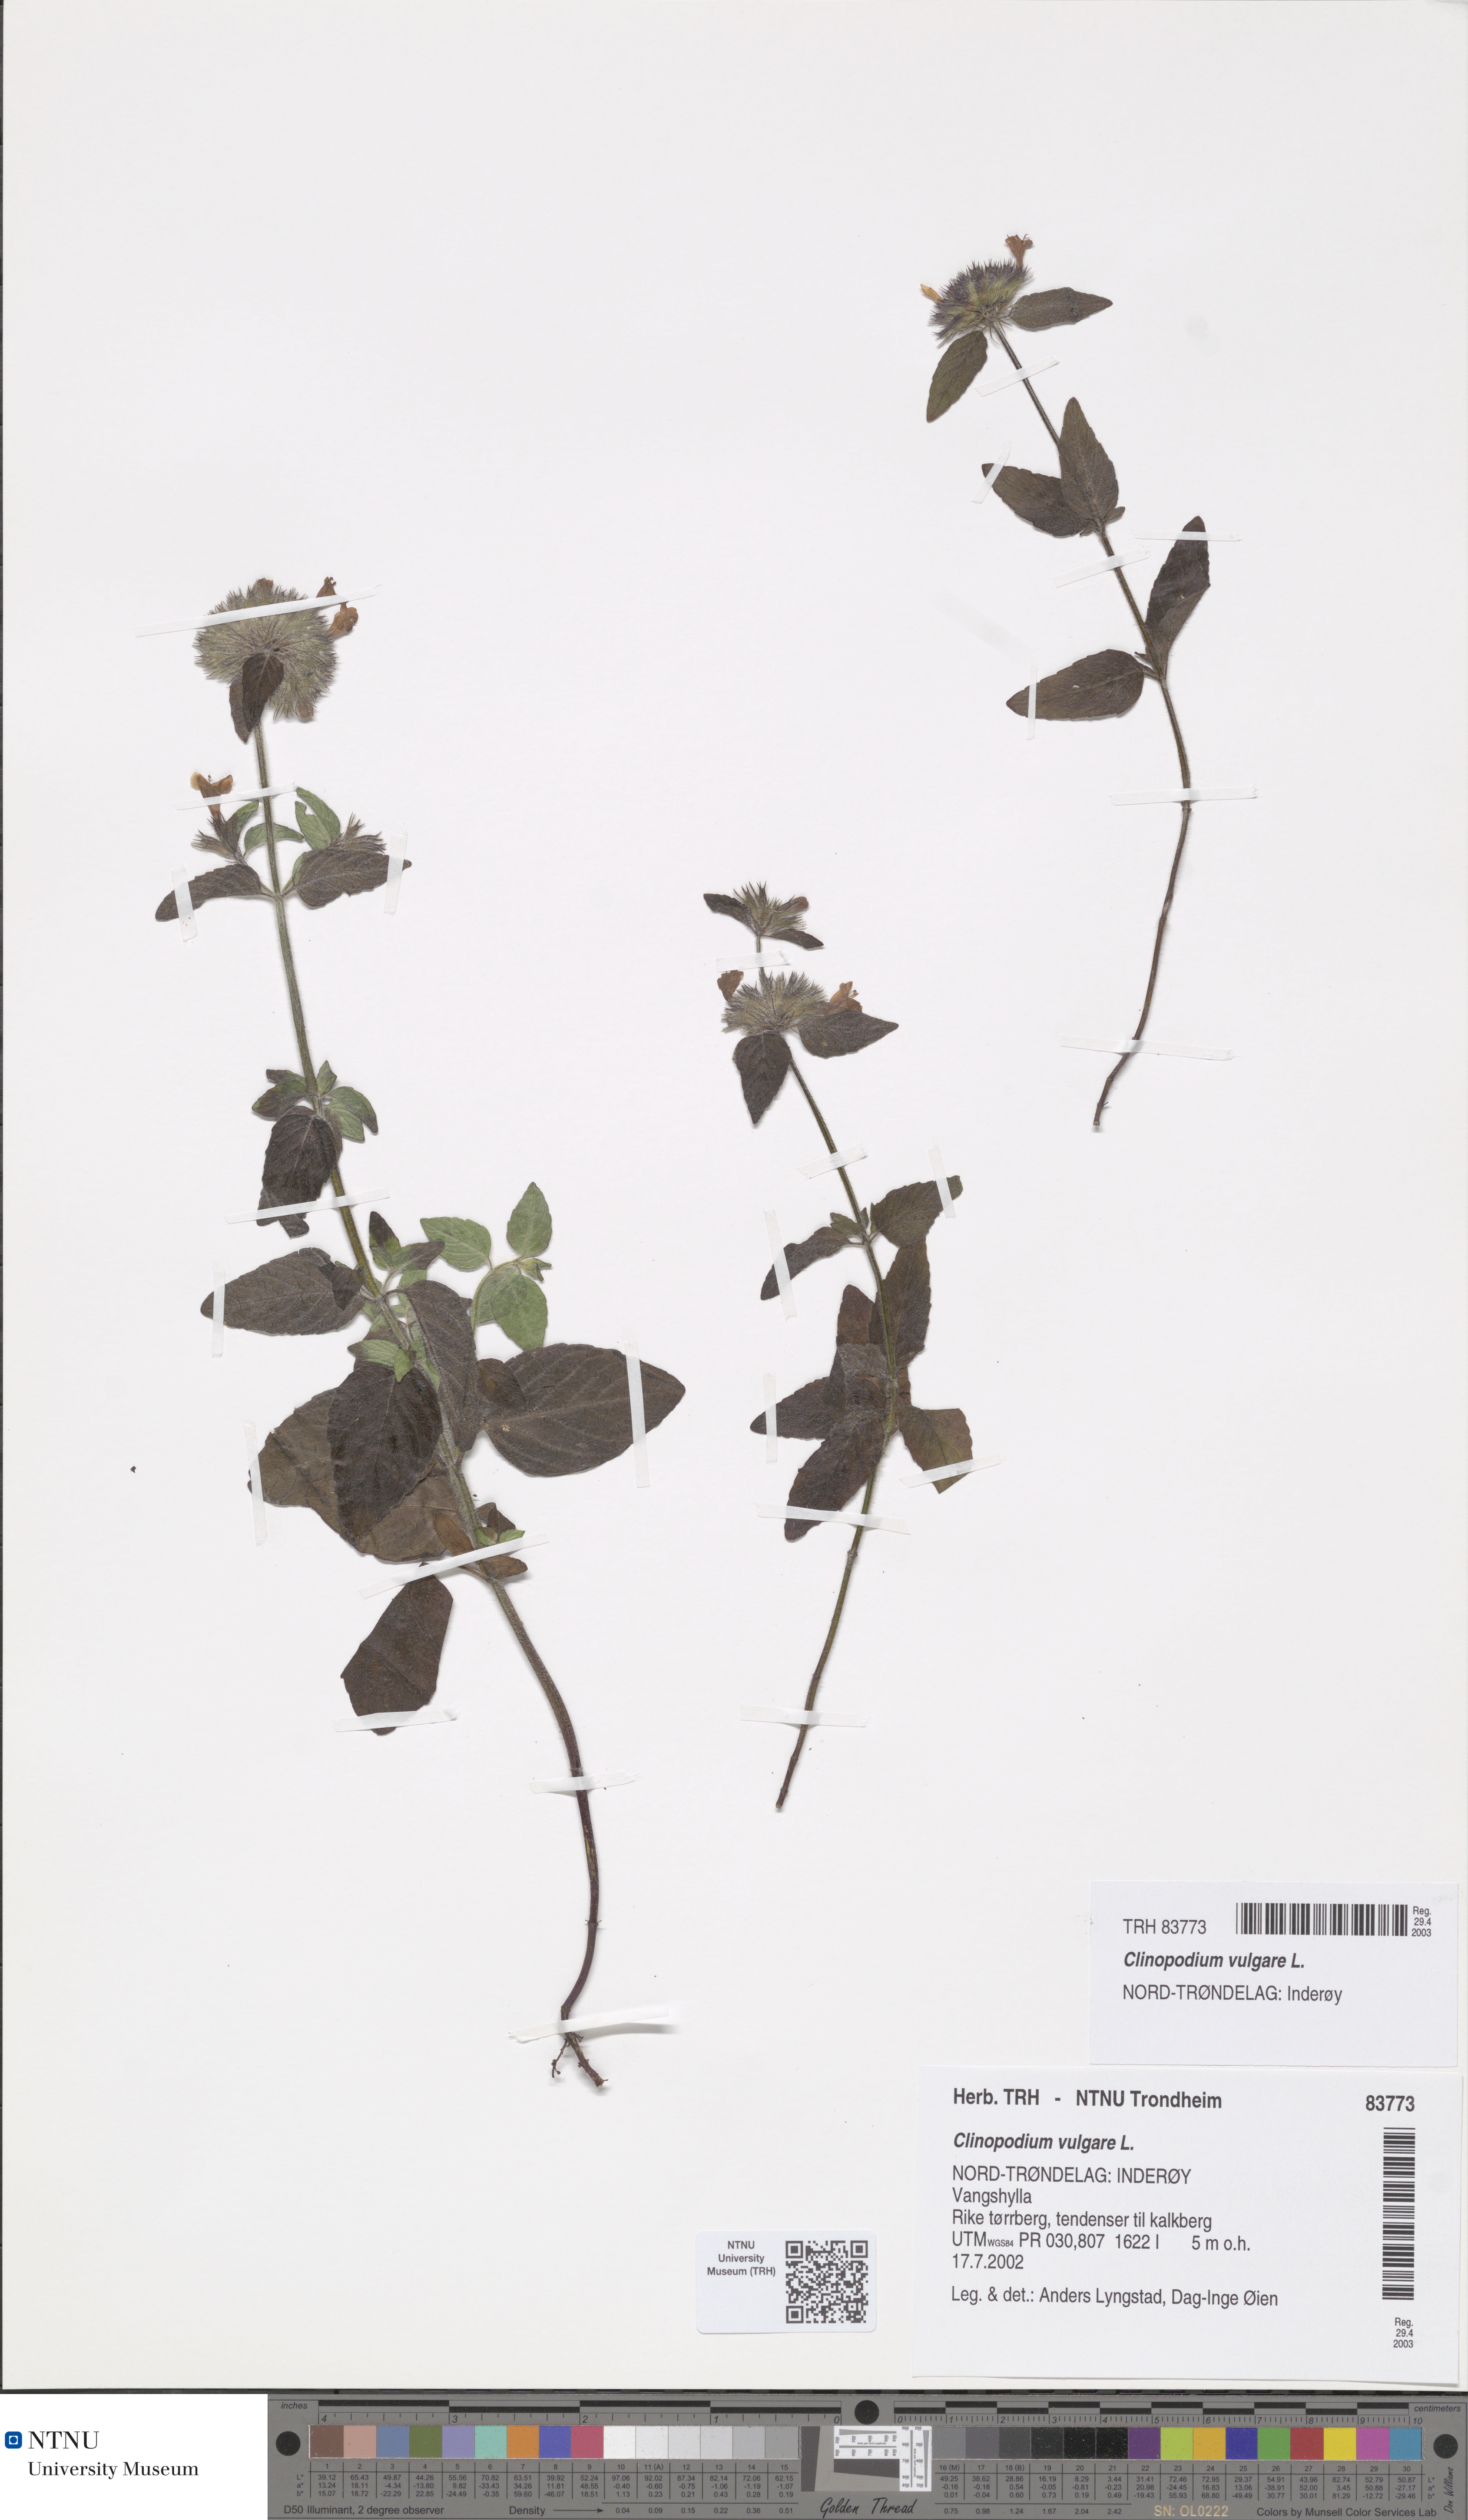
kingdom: Plantae
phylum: Tracheophyta
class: Magnoliopsida
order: Lamiales
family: Lamiaceae
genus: Clinopodium
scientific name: Clinopodium vulgare
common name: Wild basil
